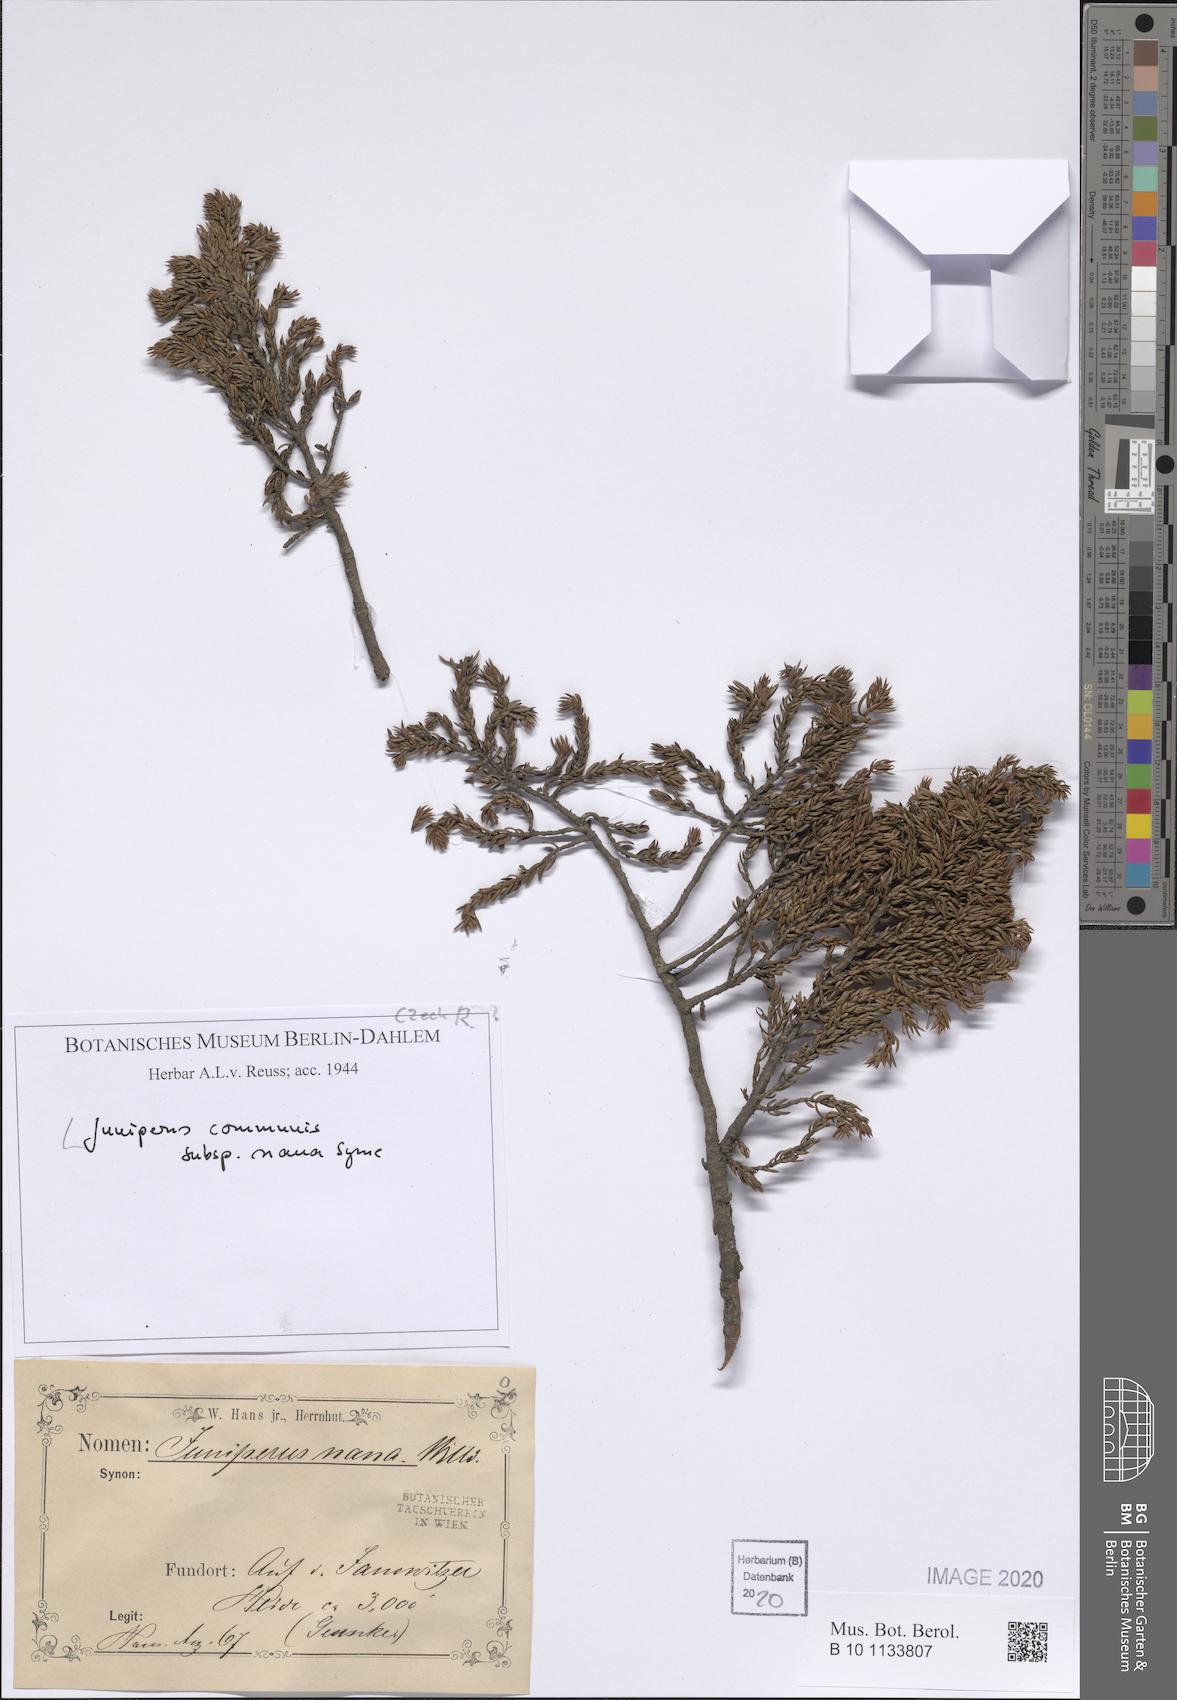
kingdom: Plantae
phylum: Tracheophyta
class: Pinopsida
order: Pinales
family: Cupressaceae
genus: Juniperus
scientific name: Juniperus communis
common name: Common juniper
